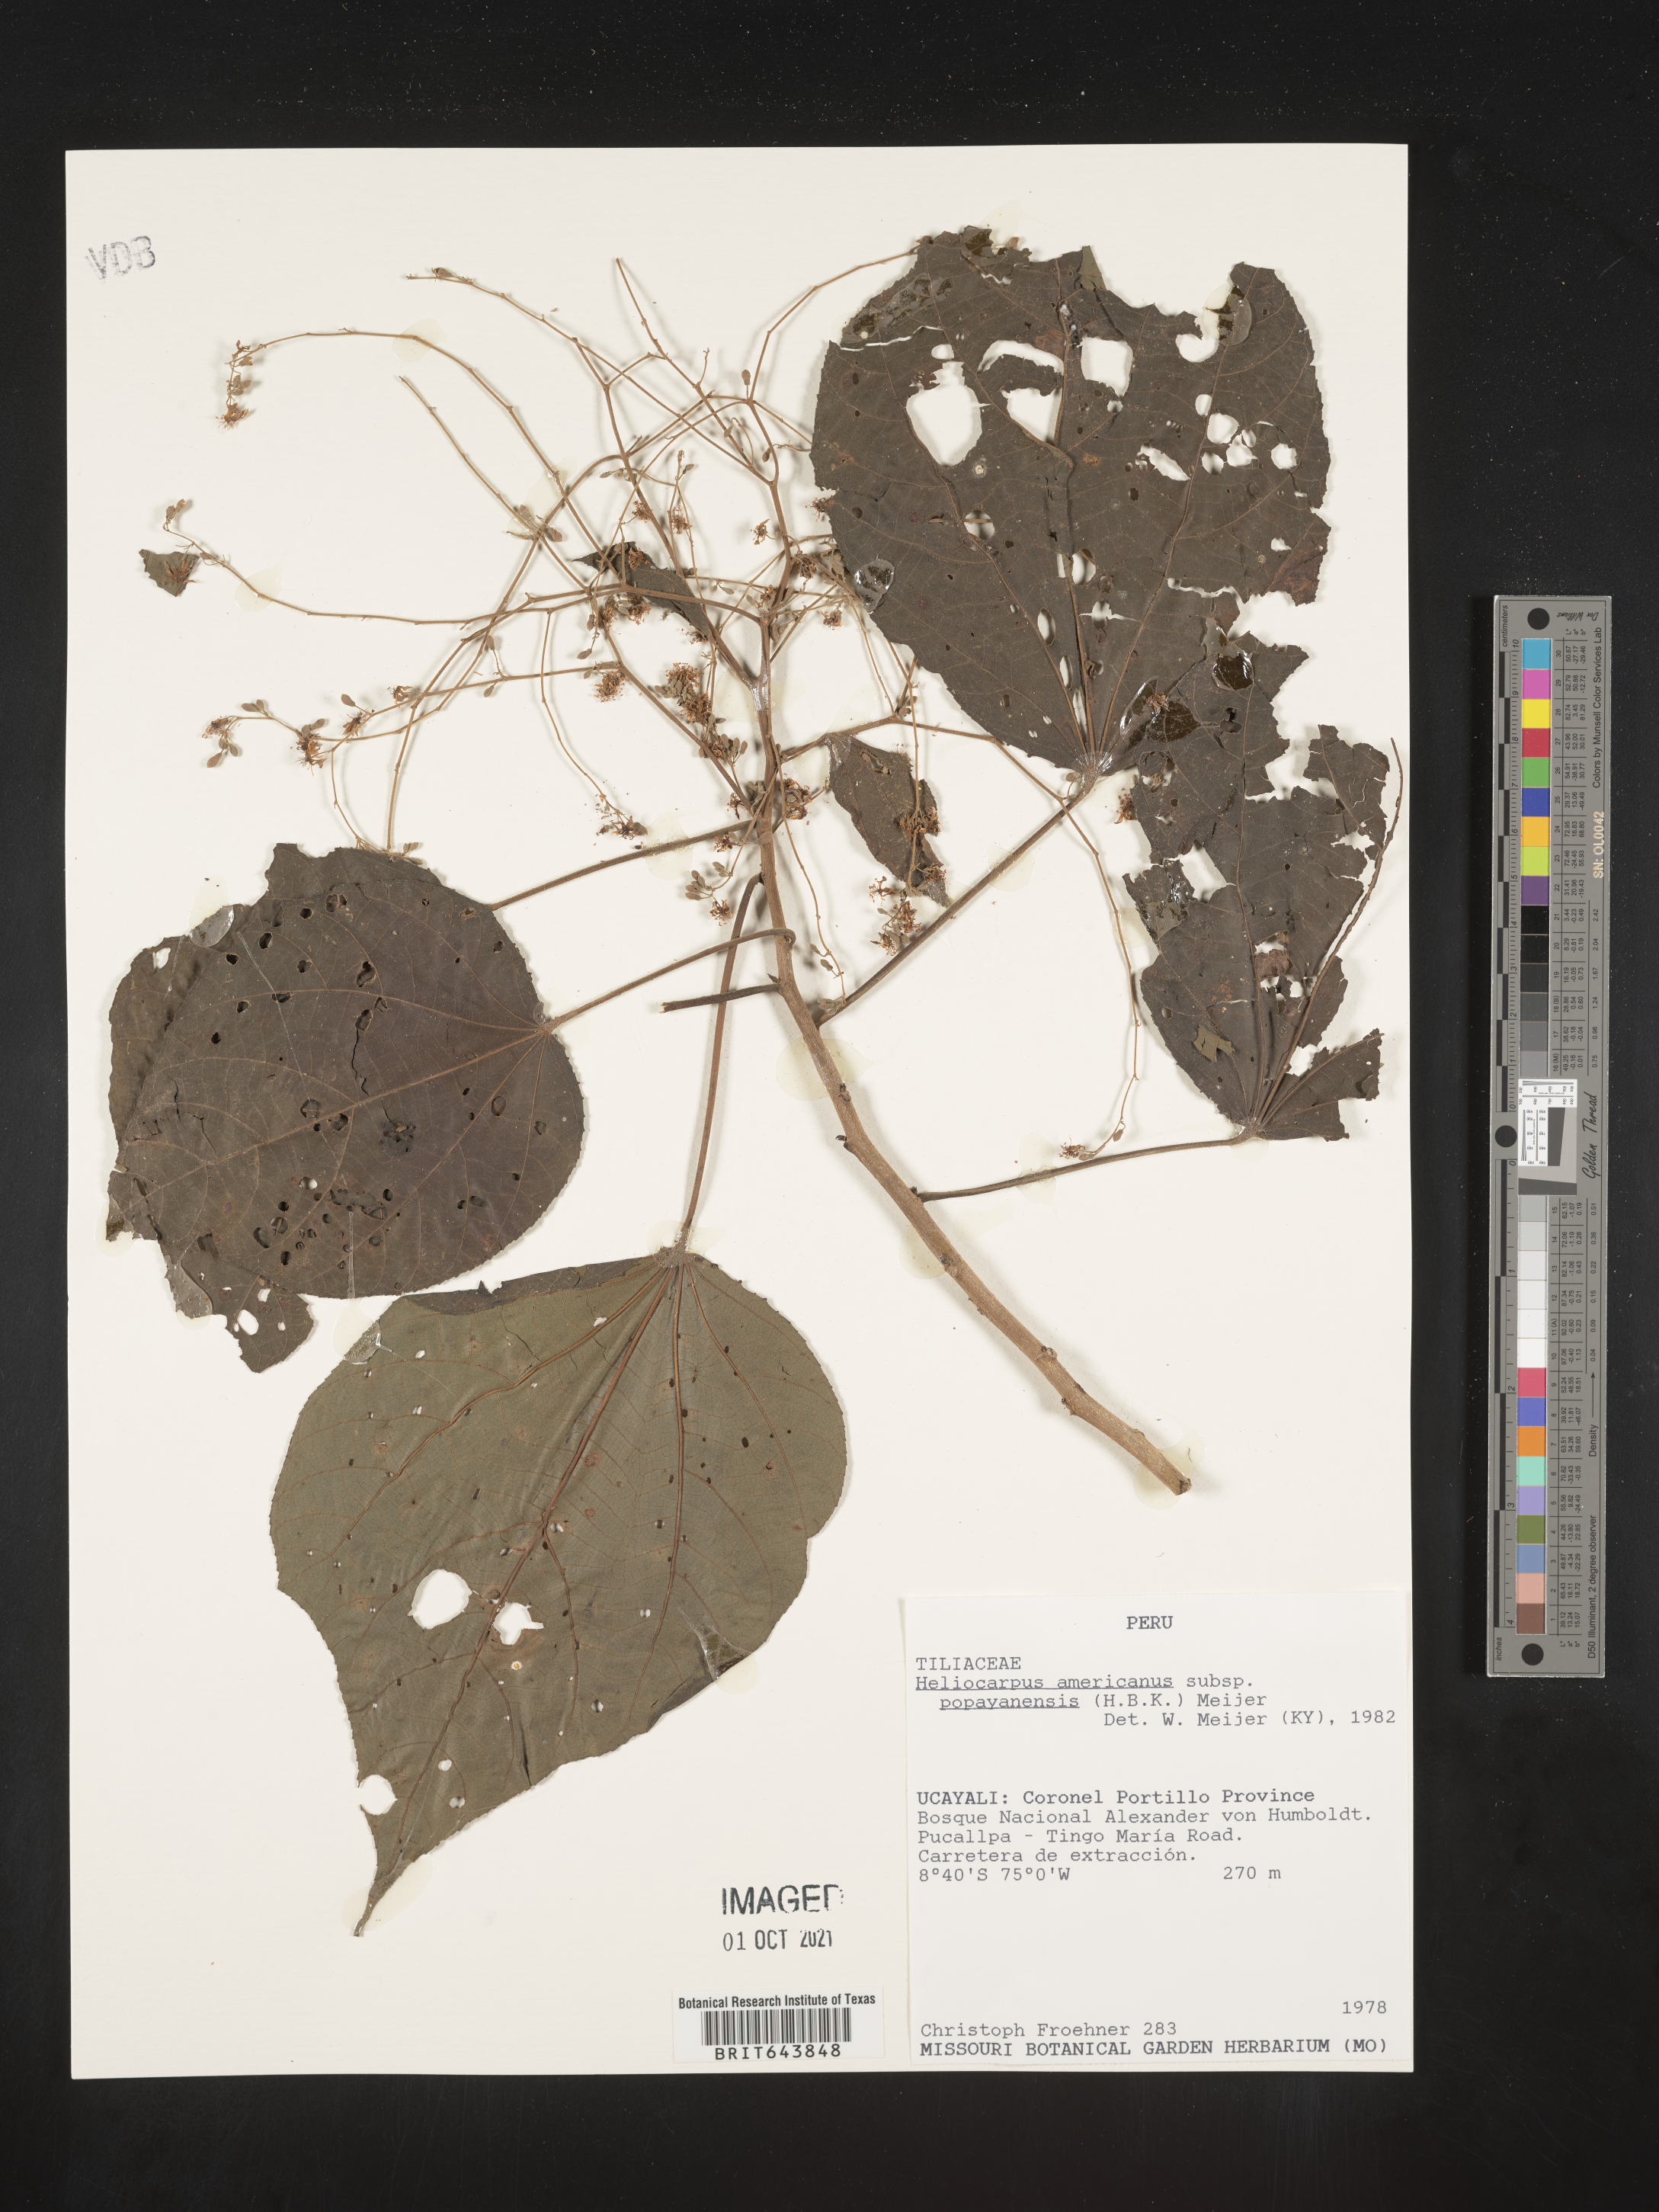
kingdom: Plantae
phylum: Tracheophyta
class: Magnoliopsida
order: Malvales
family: Malvaceae
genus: Heliocarpus
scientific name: Heliocarpus
